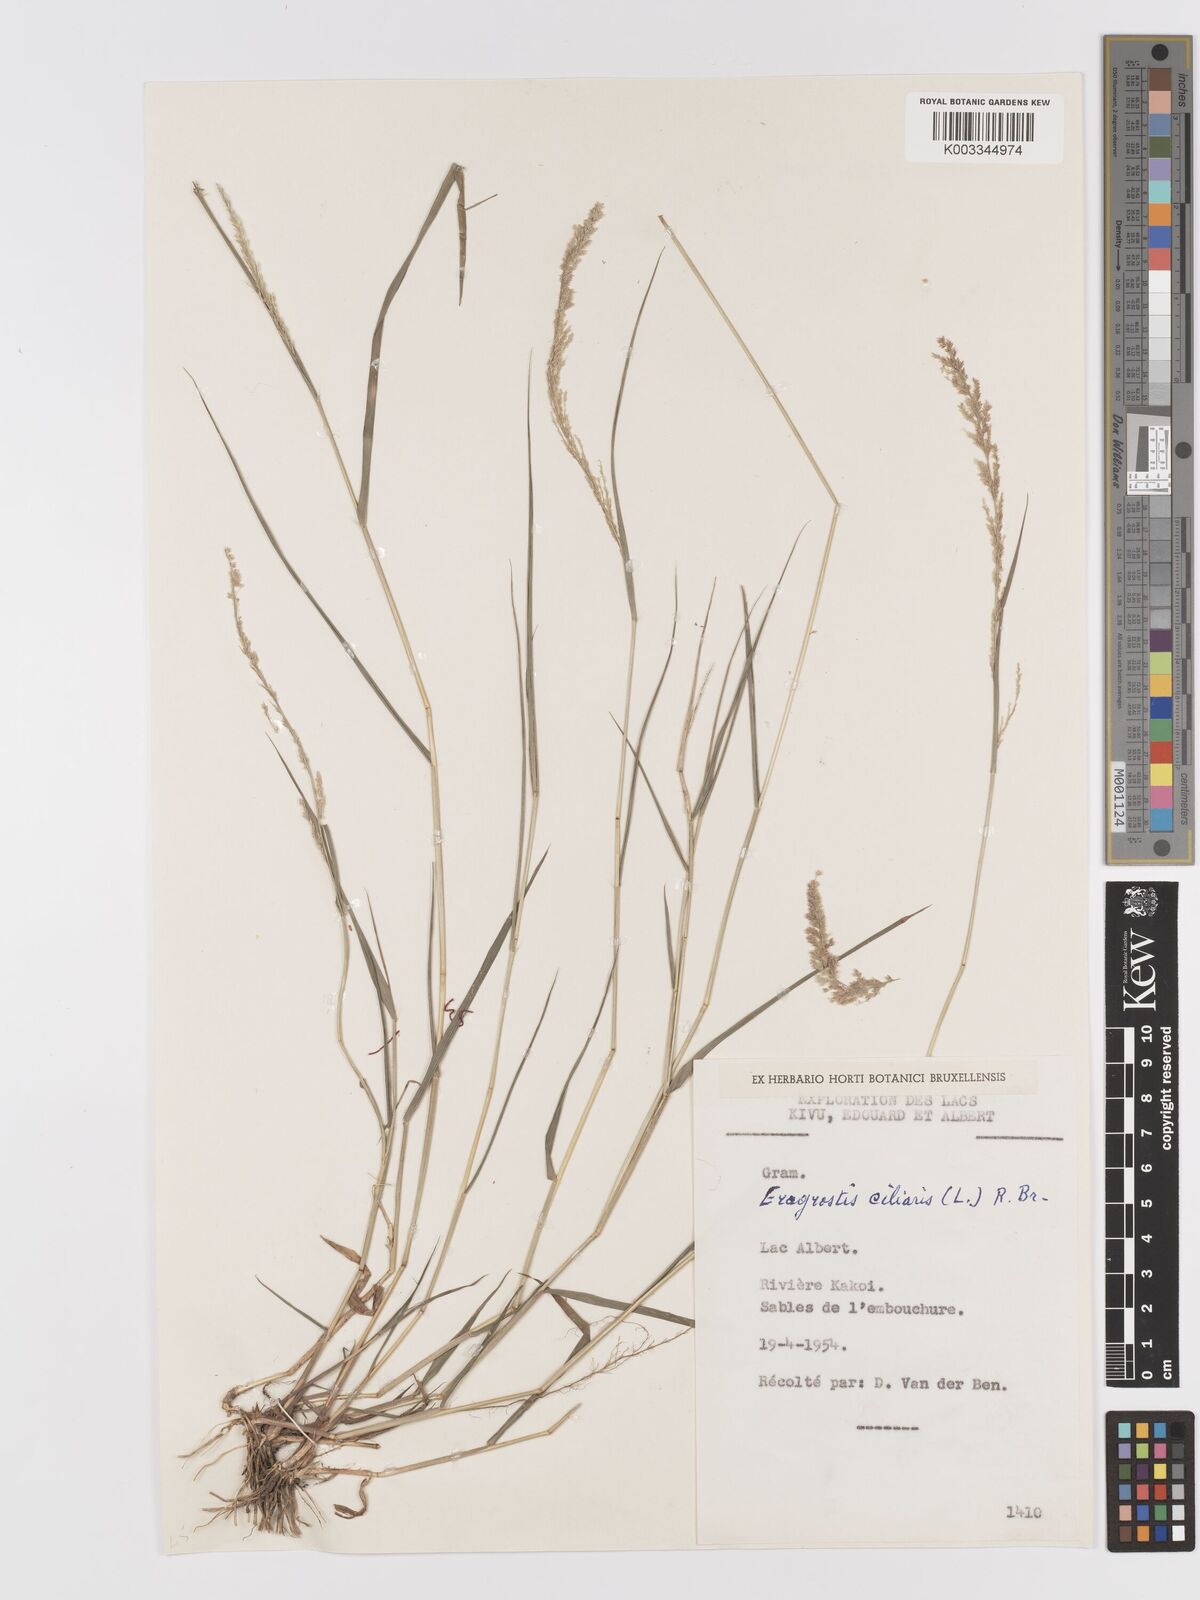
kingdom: Plantae
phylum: Tracheophyta
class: Liliopsida
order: Poales
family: Poaceae
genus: Eragrostis
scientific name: Eragrostis ciliaris
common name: Gophertail lovegrass
